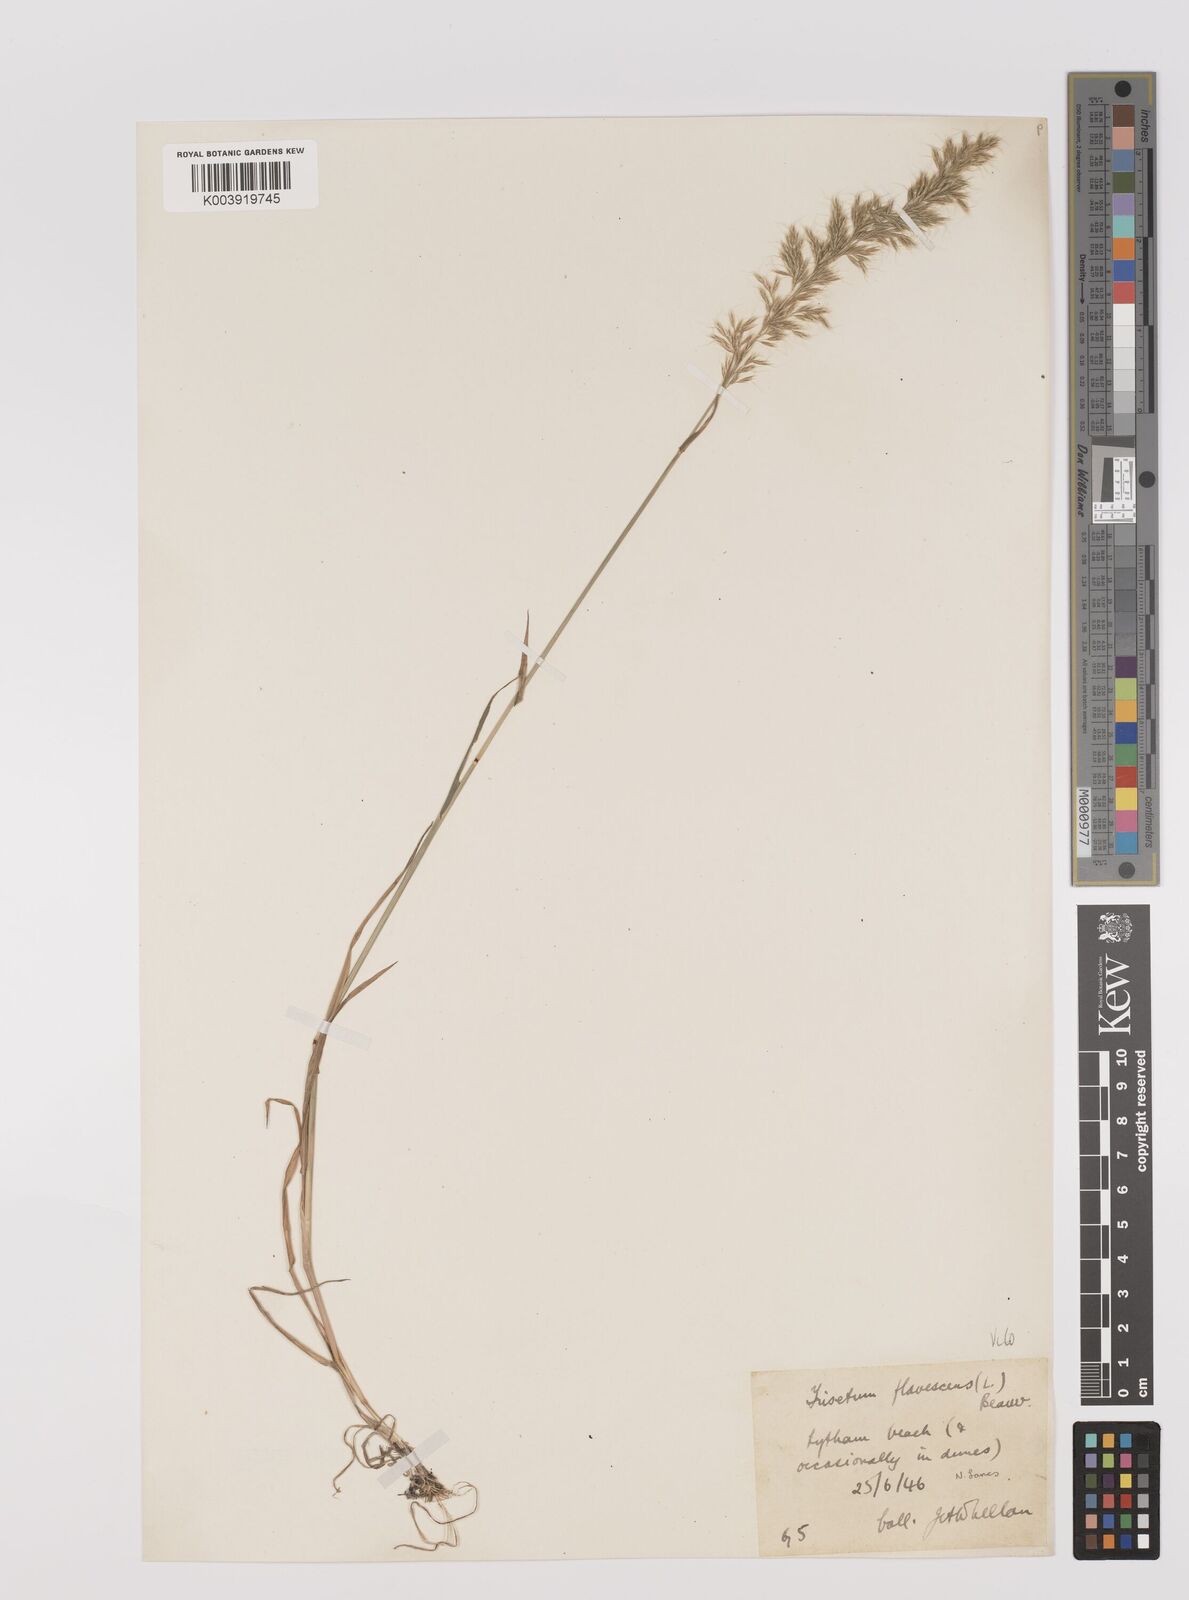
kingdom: Plantae
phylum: Tracheophyta
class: Liliopsida
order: Poales
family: Poaceae
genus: Trisetum
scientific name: Trisetum flavescens
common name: Yellow oat-grass
